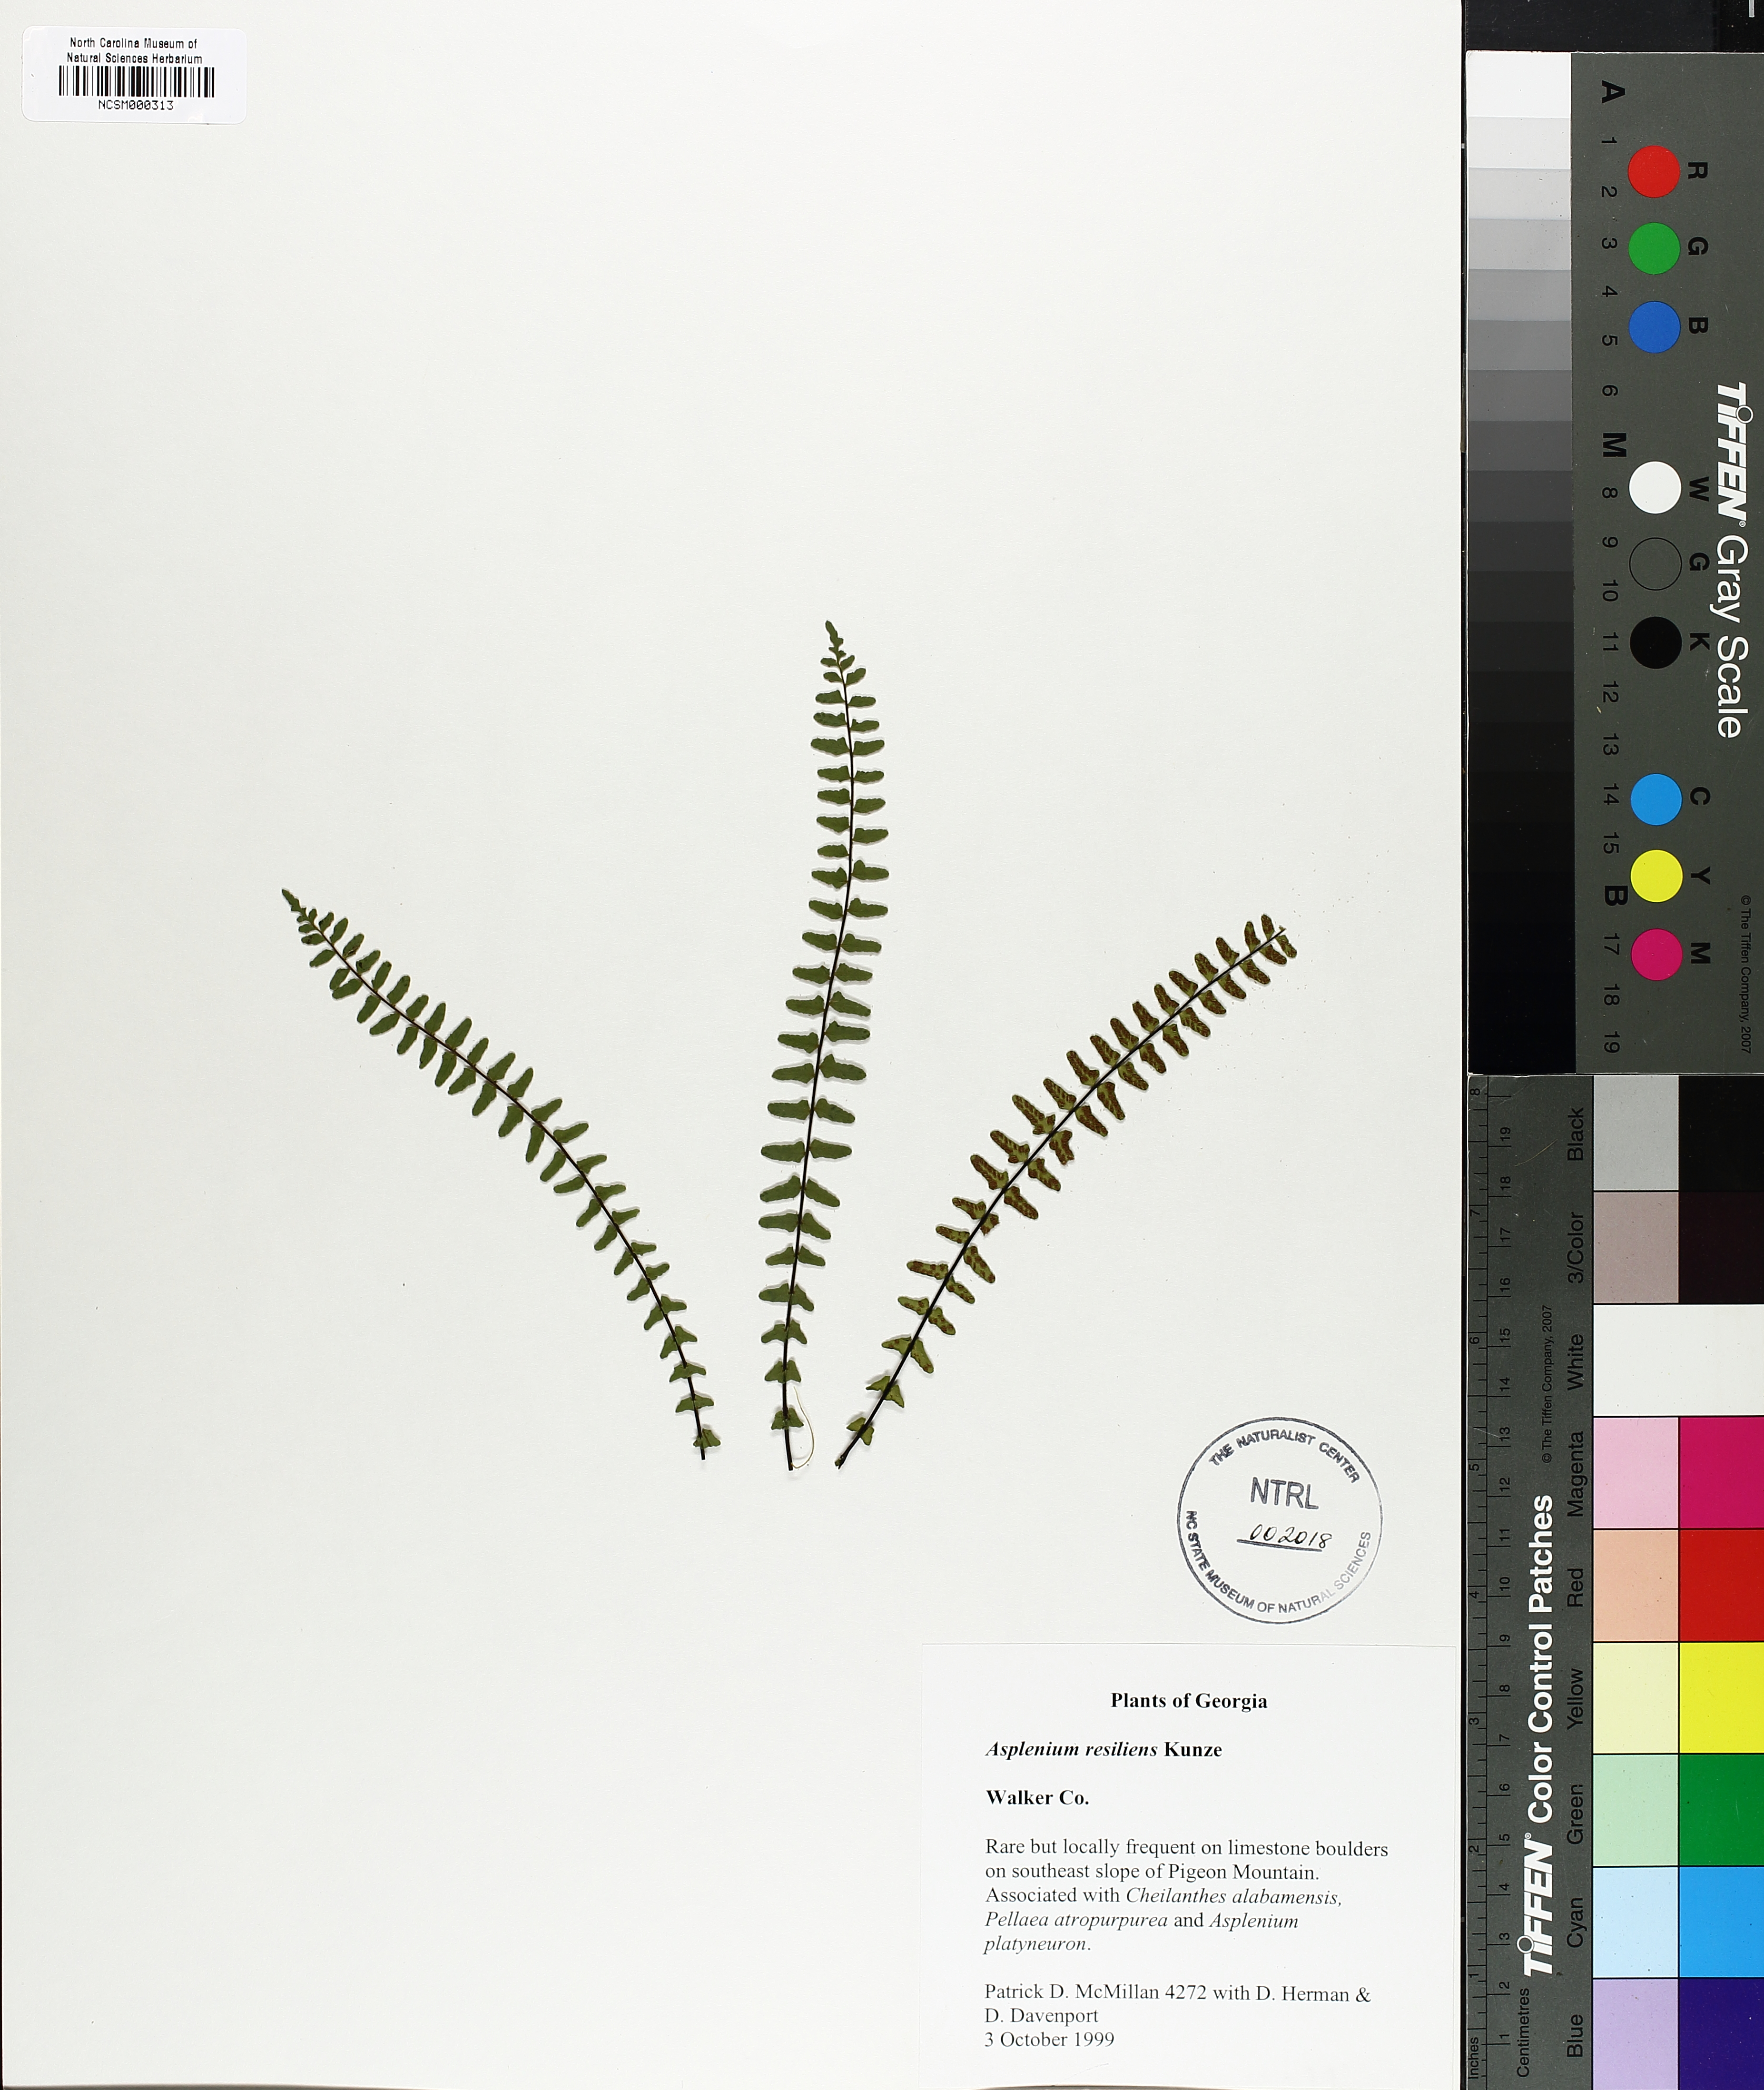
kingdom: Plantae
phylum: Tracheophyta
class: Polypodiopsida
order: Polypodiales
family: Aspleniaceae
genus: Asplenium
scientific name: Asplenium resiliens
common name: Blackstem spleenwort
